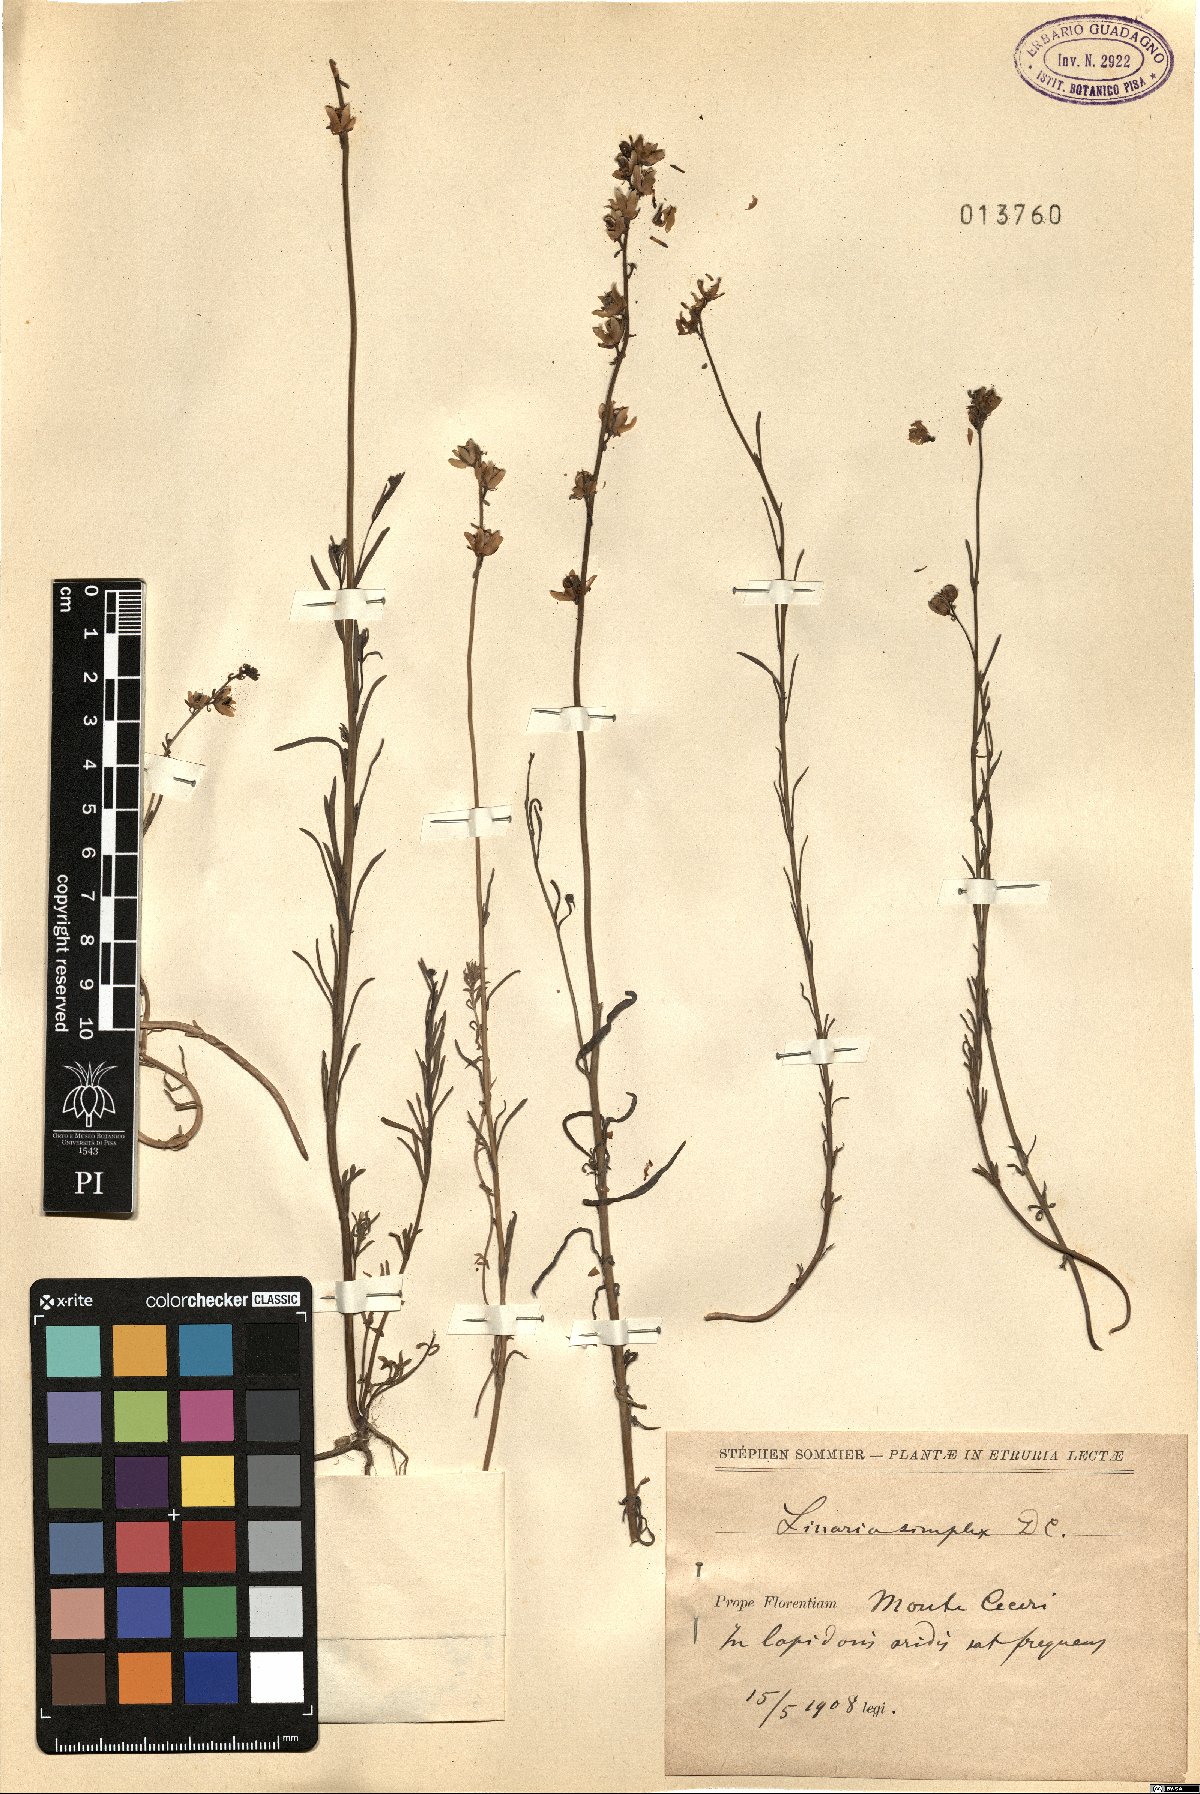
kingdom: Plantae
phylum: Tracheophyta
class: Magnoliopsida
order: Lamiales
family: Plantaginaceae
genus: Linaria
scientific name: Linaria simplex
